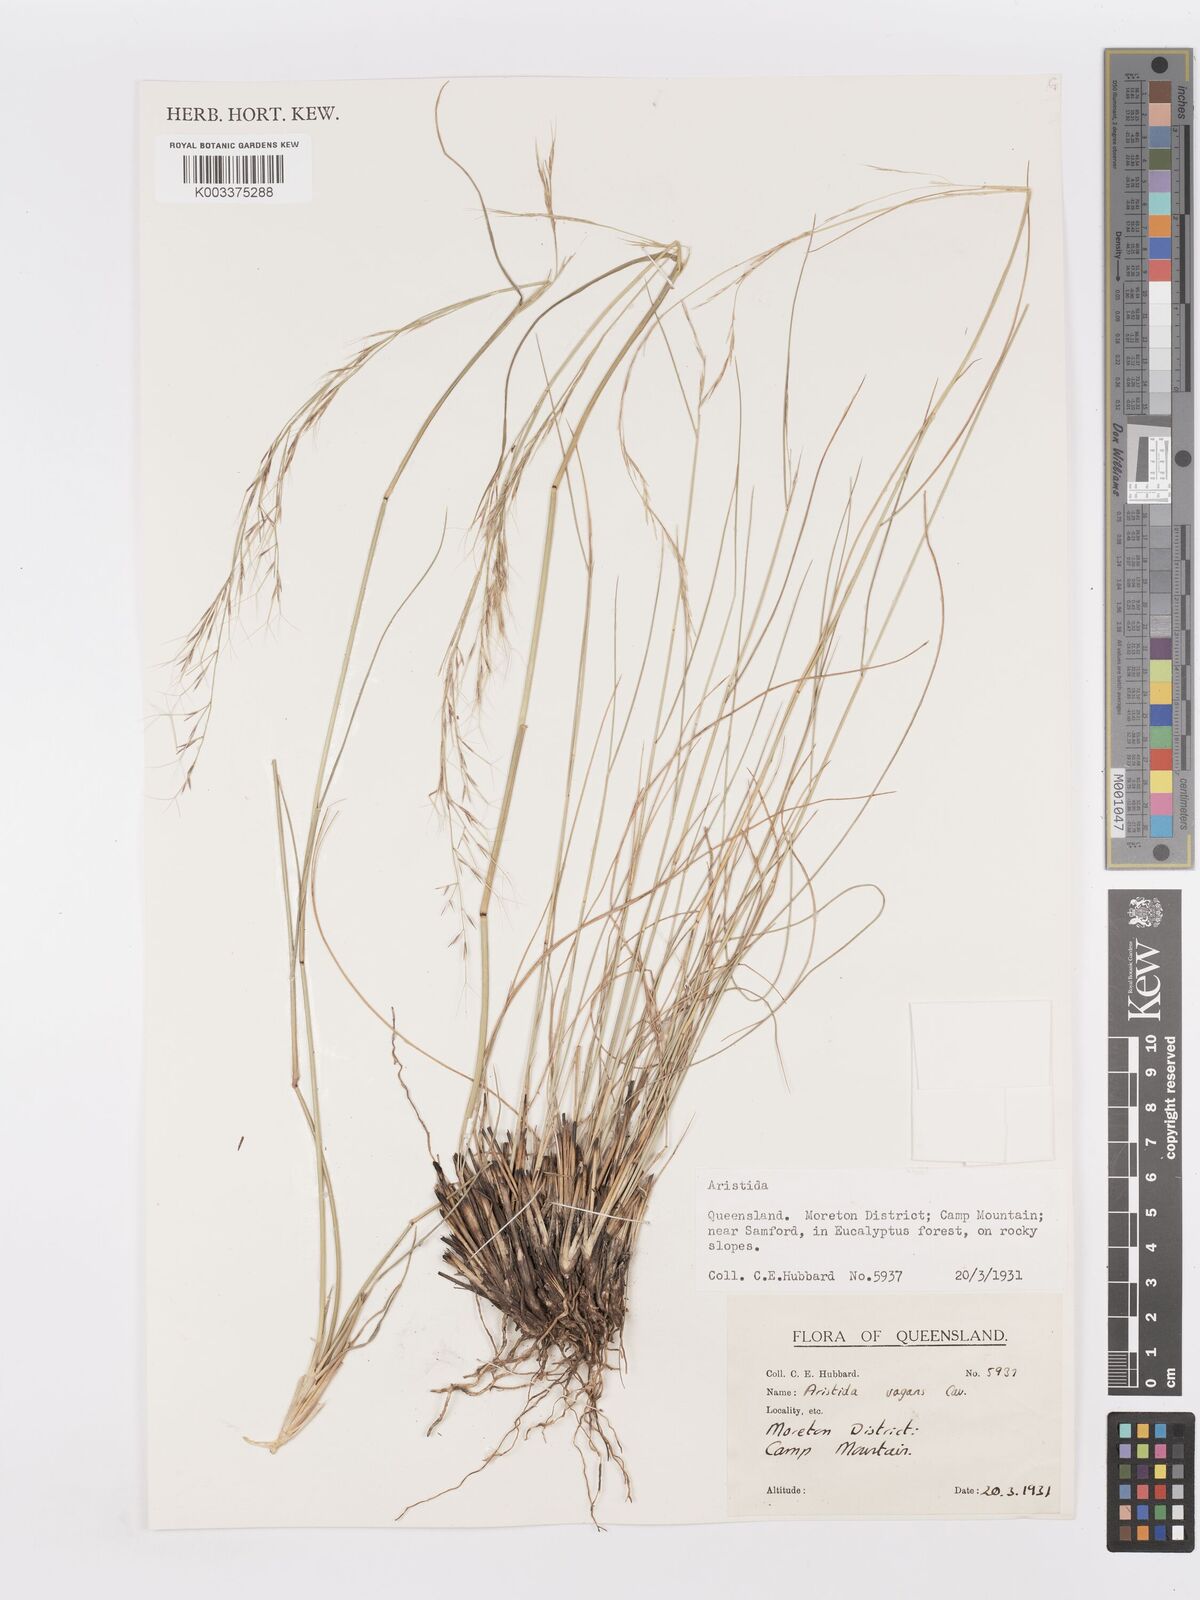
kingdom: Plantae
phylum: Tracheophyta
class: Liliopsida
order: Poales
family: Poaceae
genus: Aristida
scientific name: Aristida vagans
